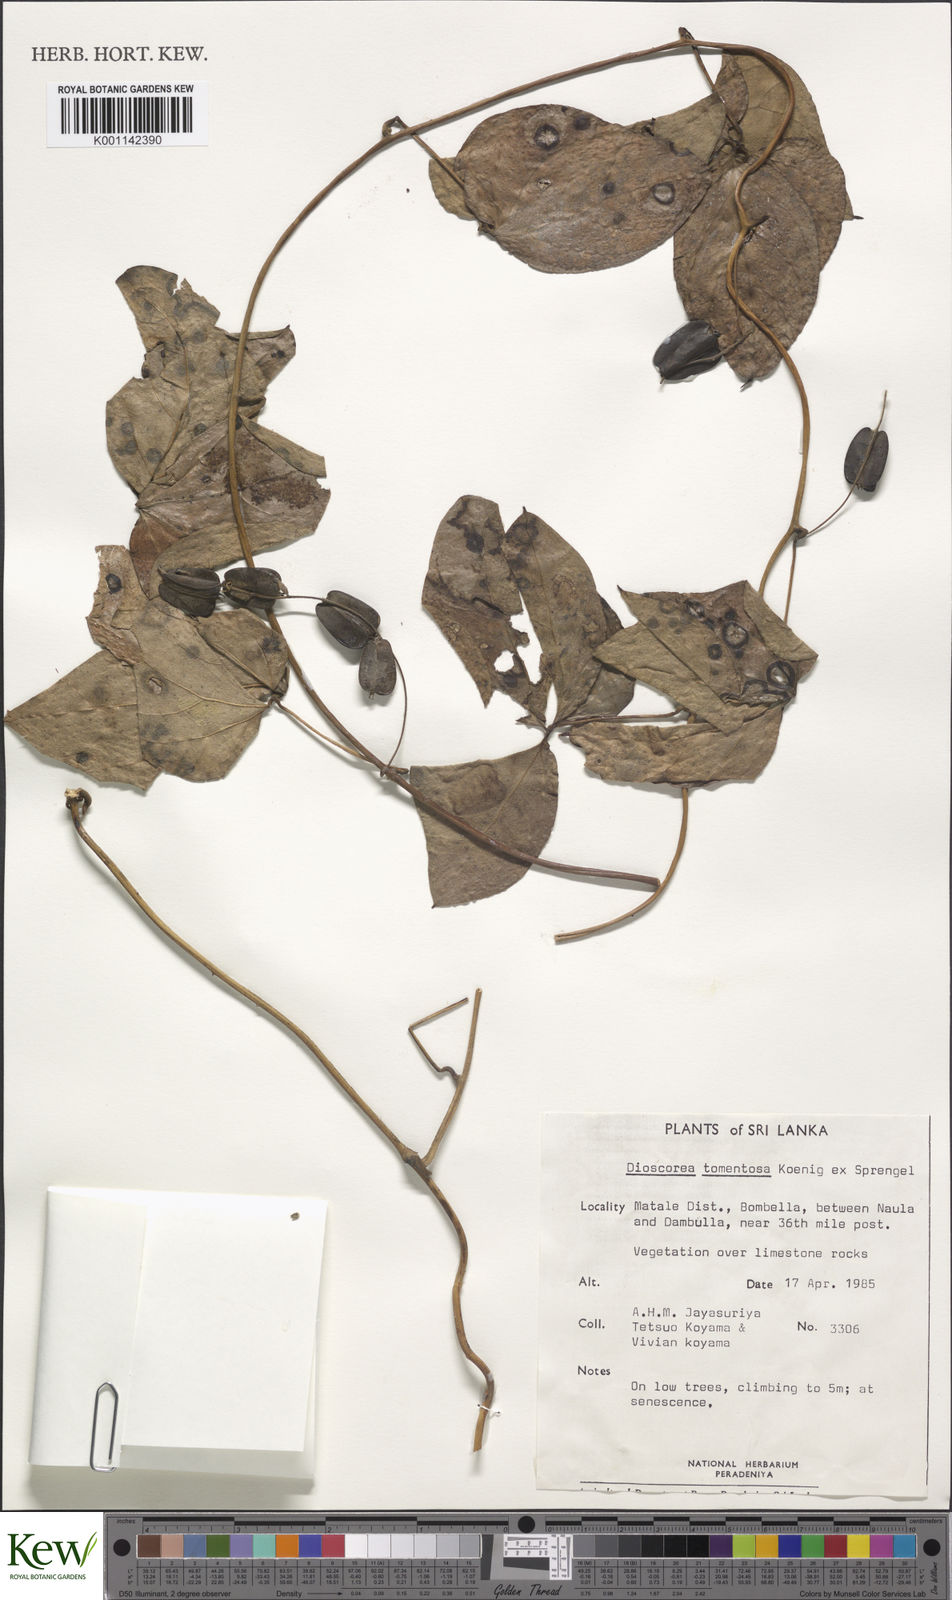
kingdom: Plantae
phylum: Tracheophyta
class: Liliopsida
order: Dioscoreales
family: Dioscoreaceae
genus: Dioscorea
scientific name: Dioscorea
